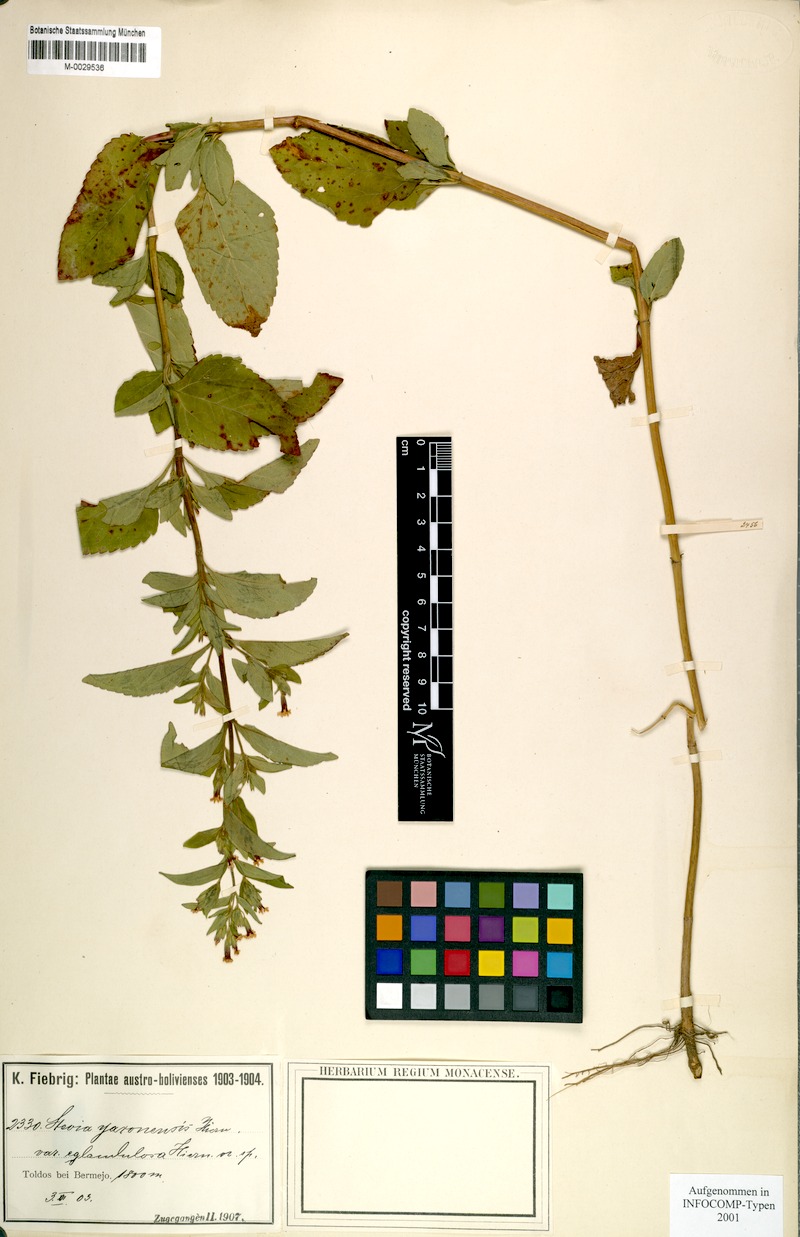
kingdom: Plantae
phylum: Tracheophyta
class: Magnoliopsida
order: Asterales
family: Asteraceae
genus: Stevia
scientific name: Stevia yaconensis
